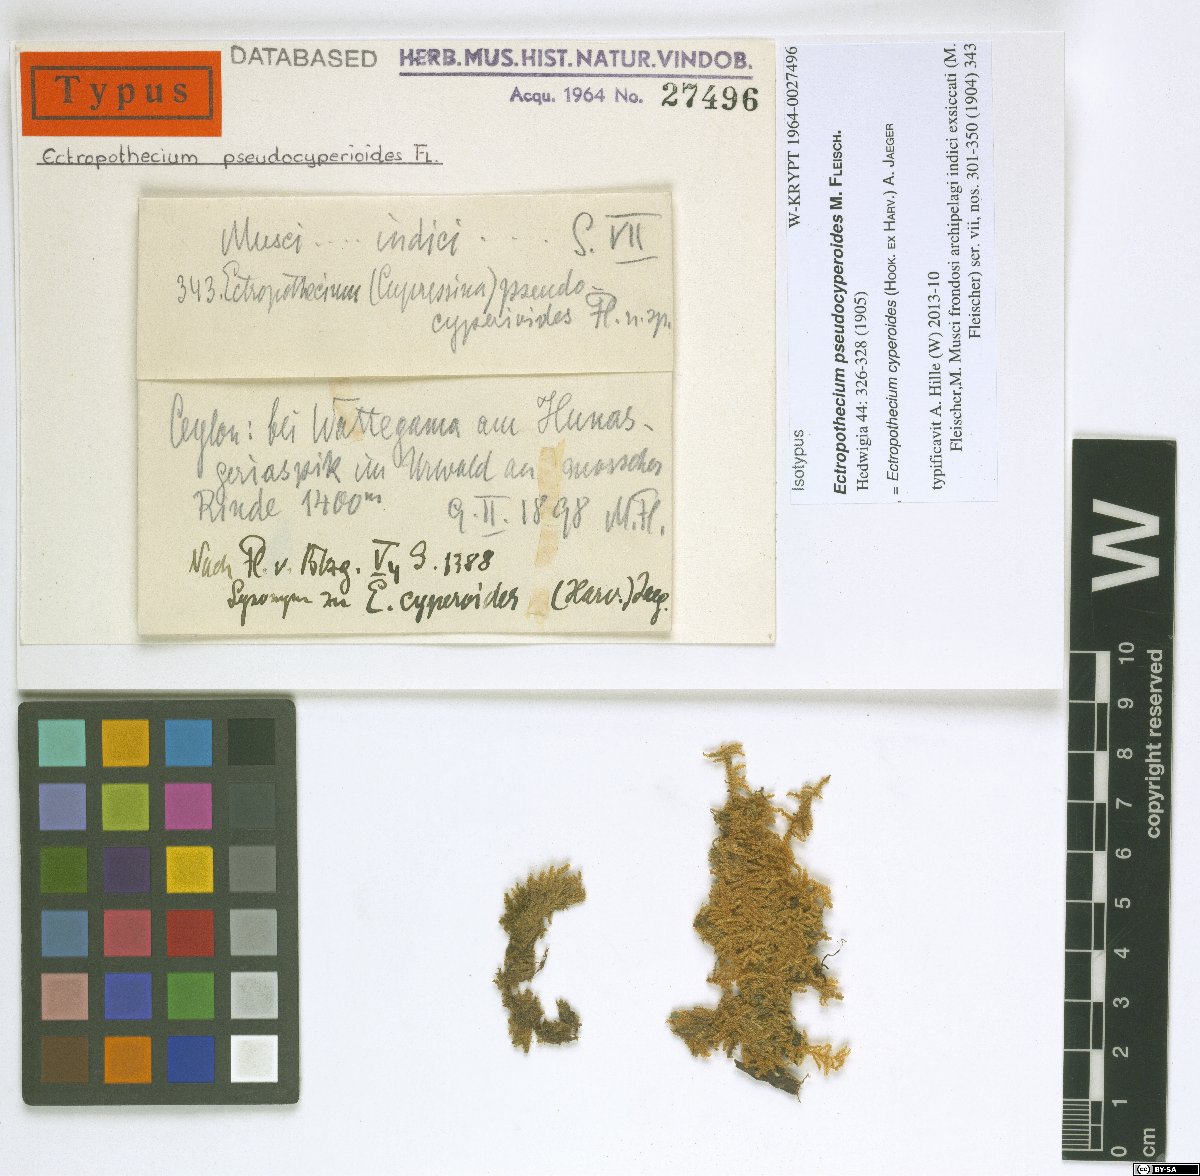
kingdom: Plantae
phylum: Bryophyta
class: Bryopsida
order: Hypnales
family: Hypnaceae
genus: Ectropothecium
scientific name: Ectropothecium pseudocyperoides
